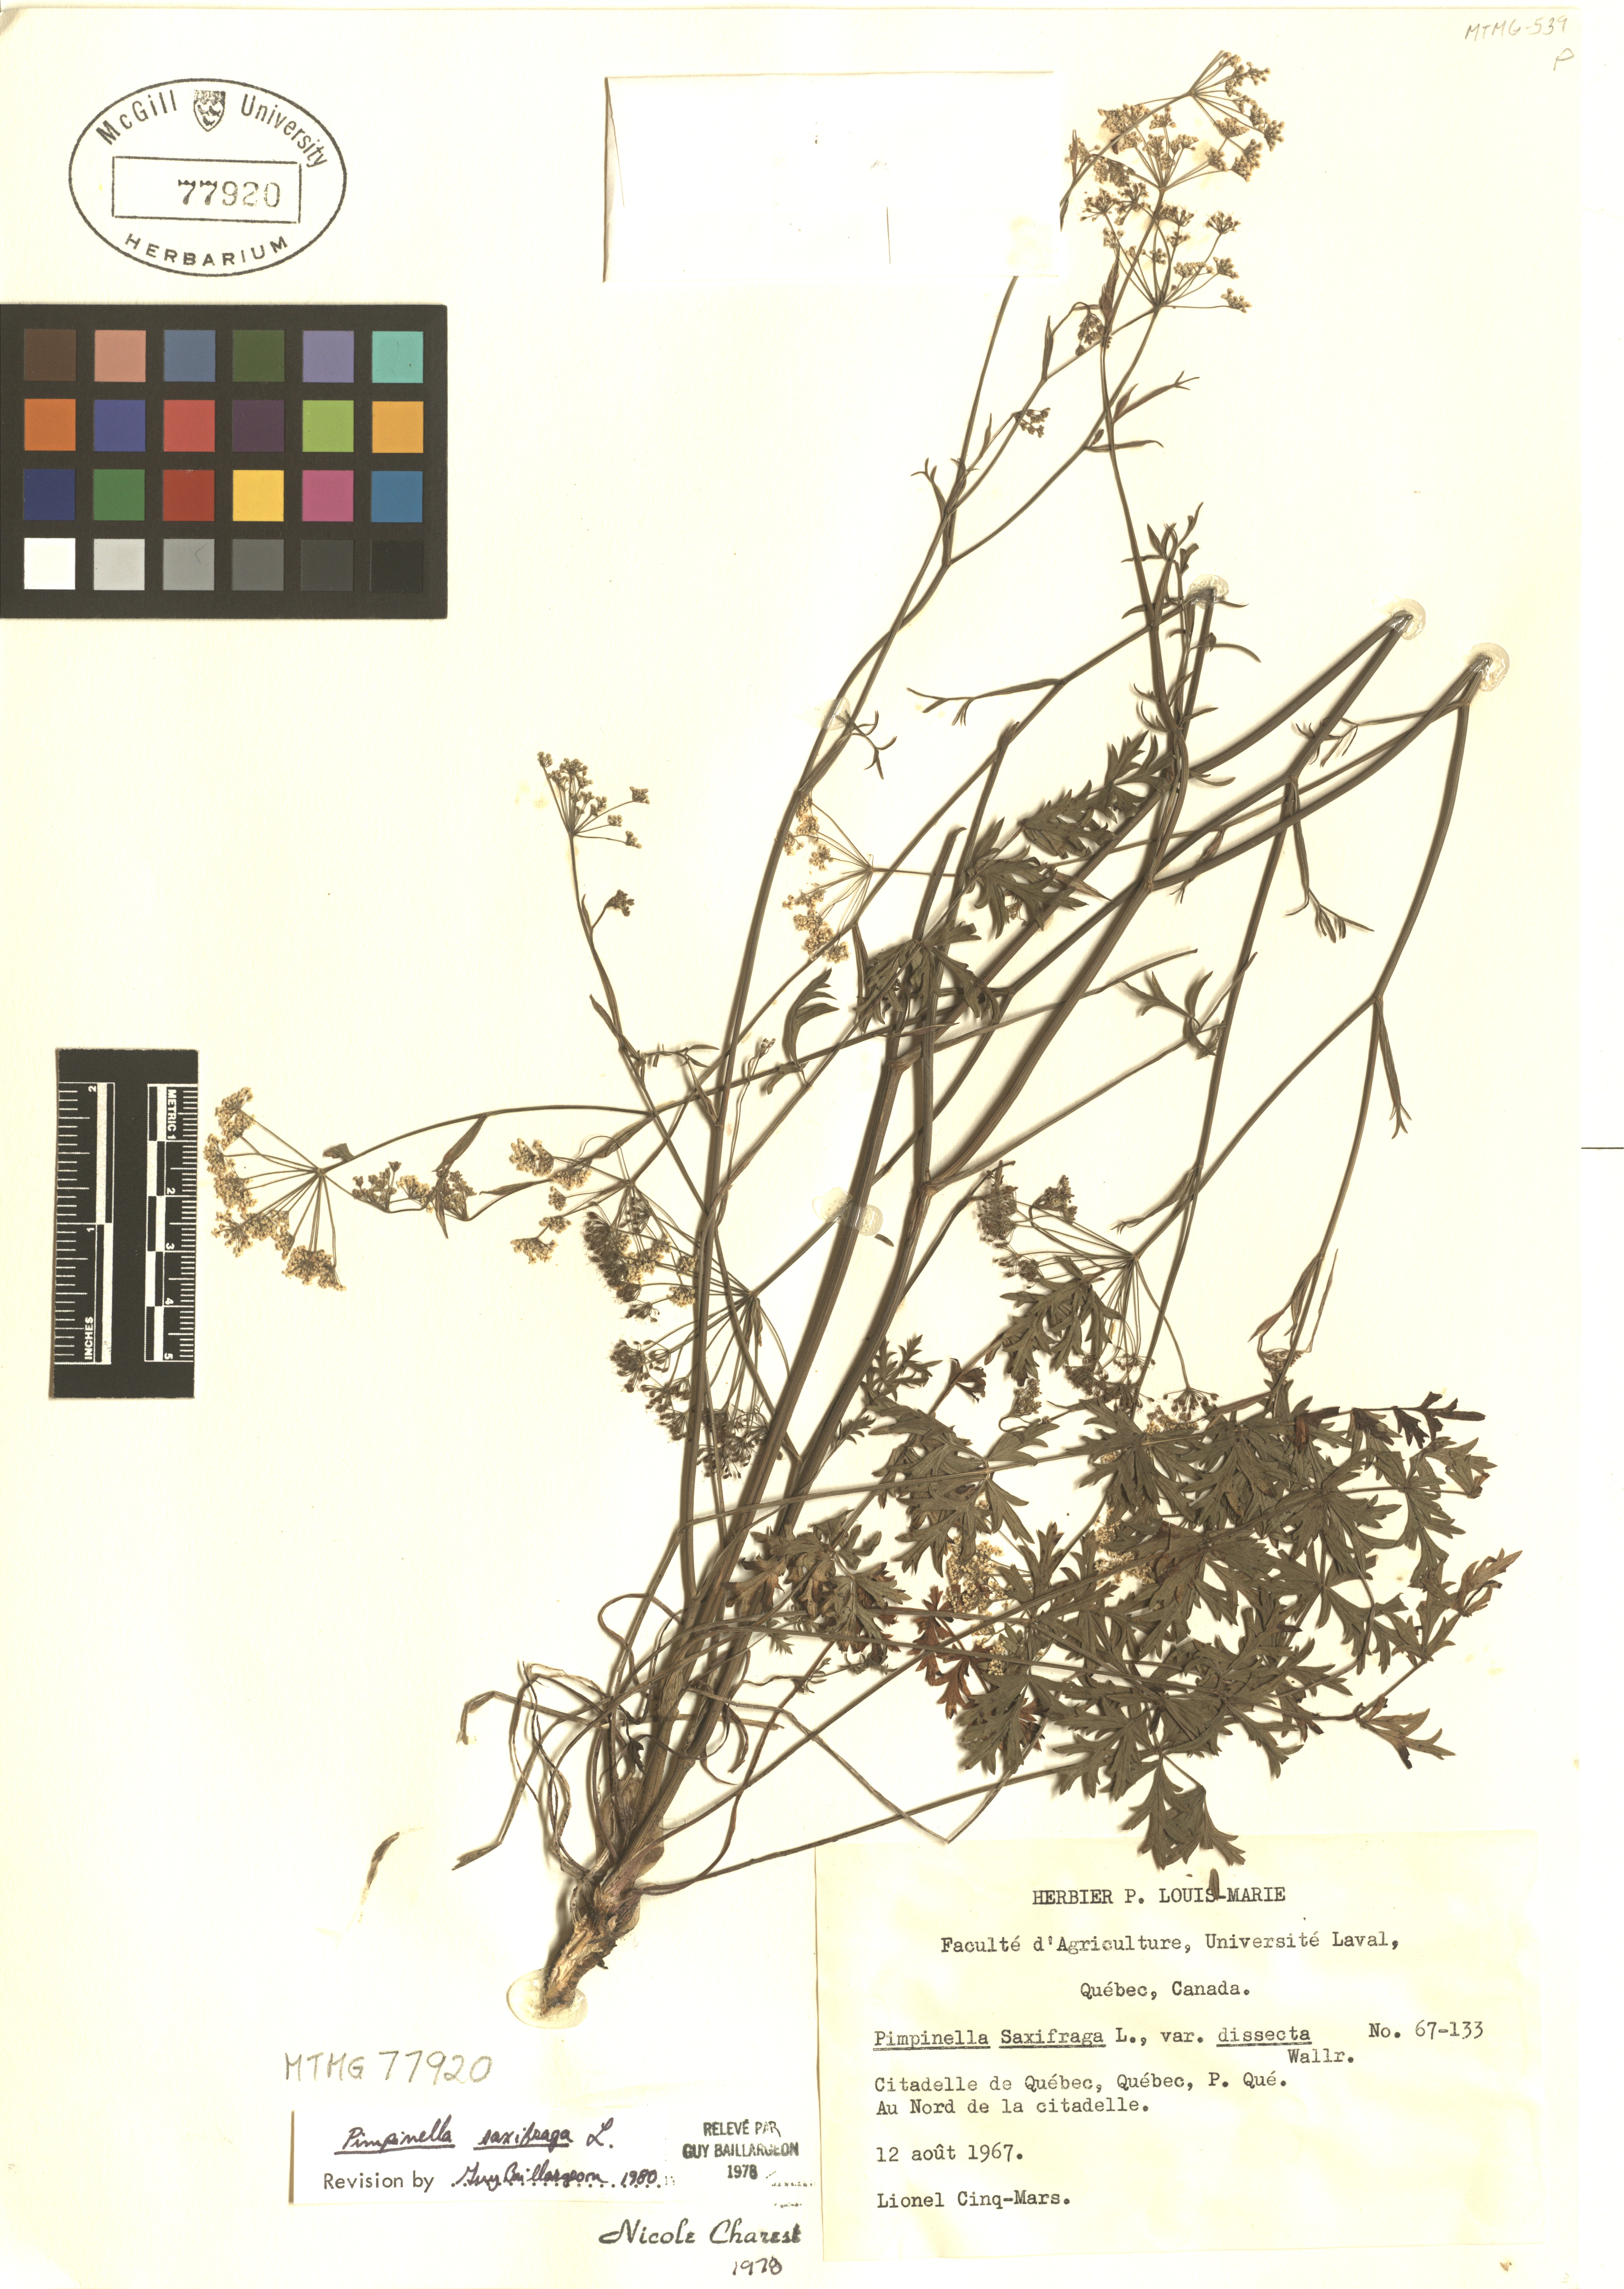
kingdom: Plantae
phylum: Tracheophyta
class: Magnoliopsida
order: Apiales
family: Apiaceae
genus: Pimpinella
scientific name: Pimpinella saxifraga
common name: Burnet-saxifrage
